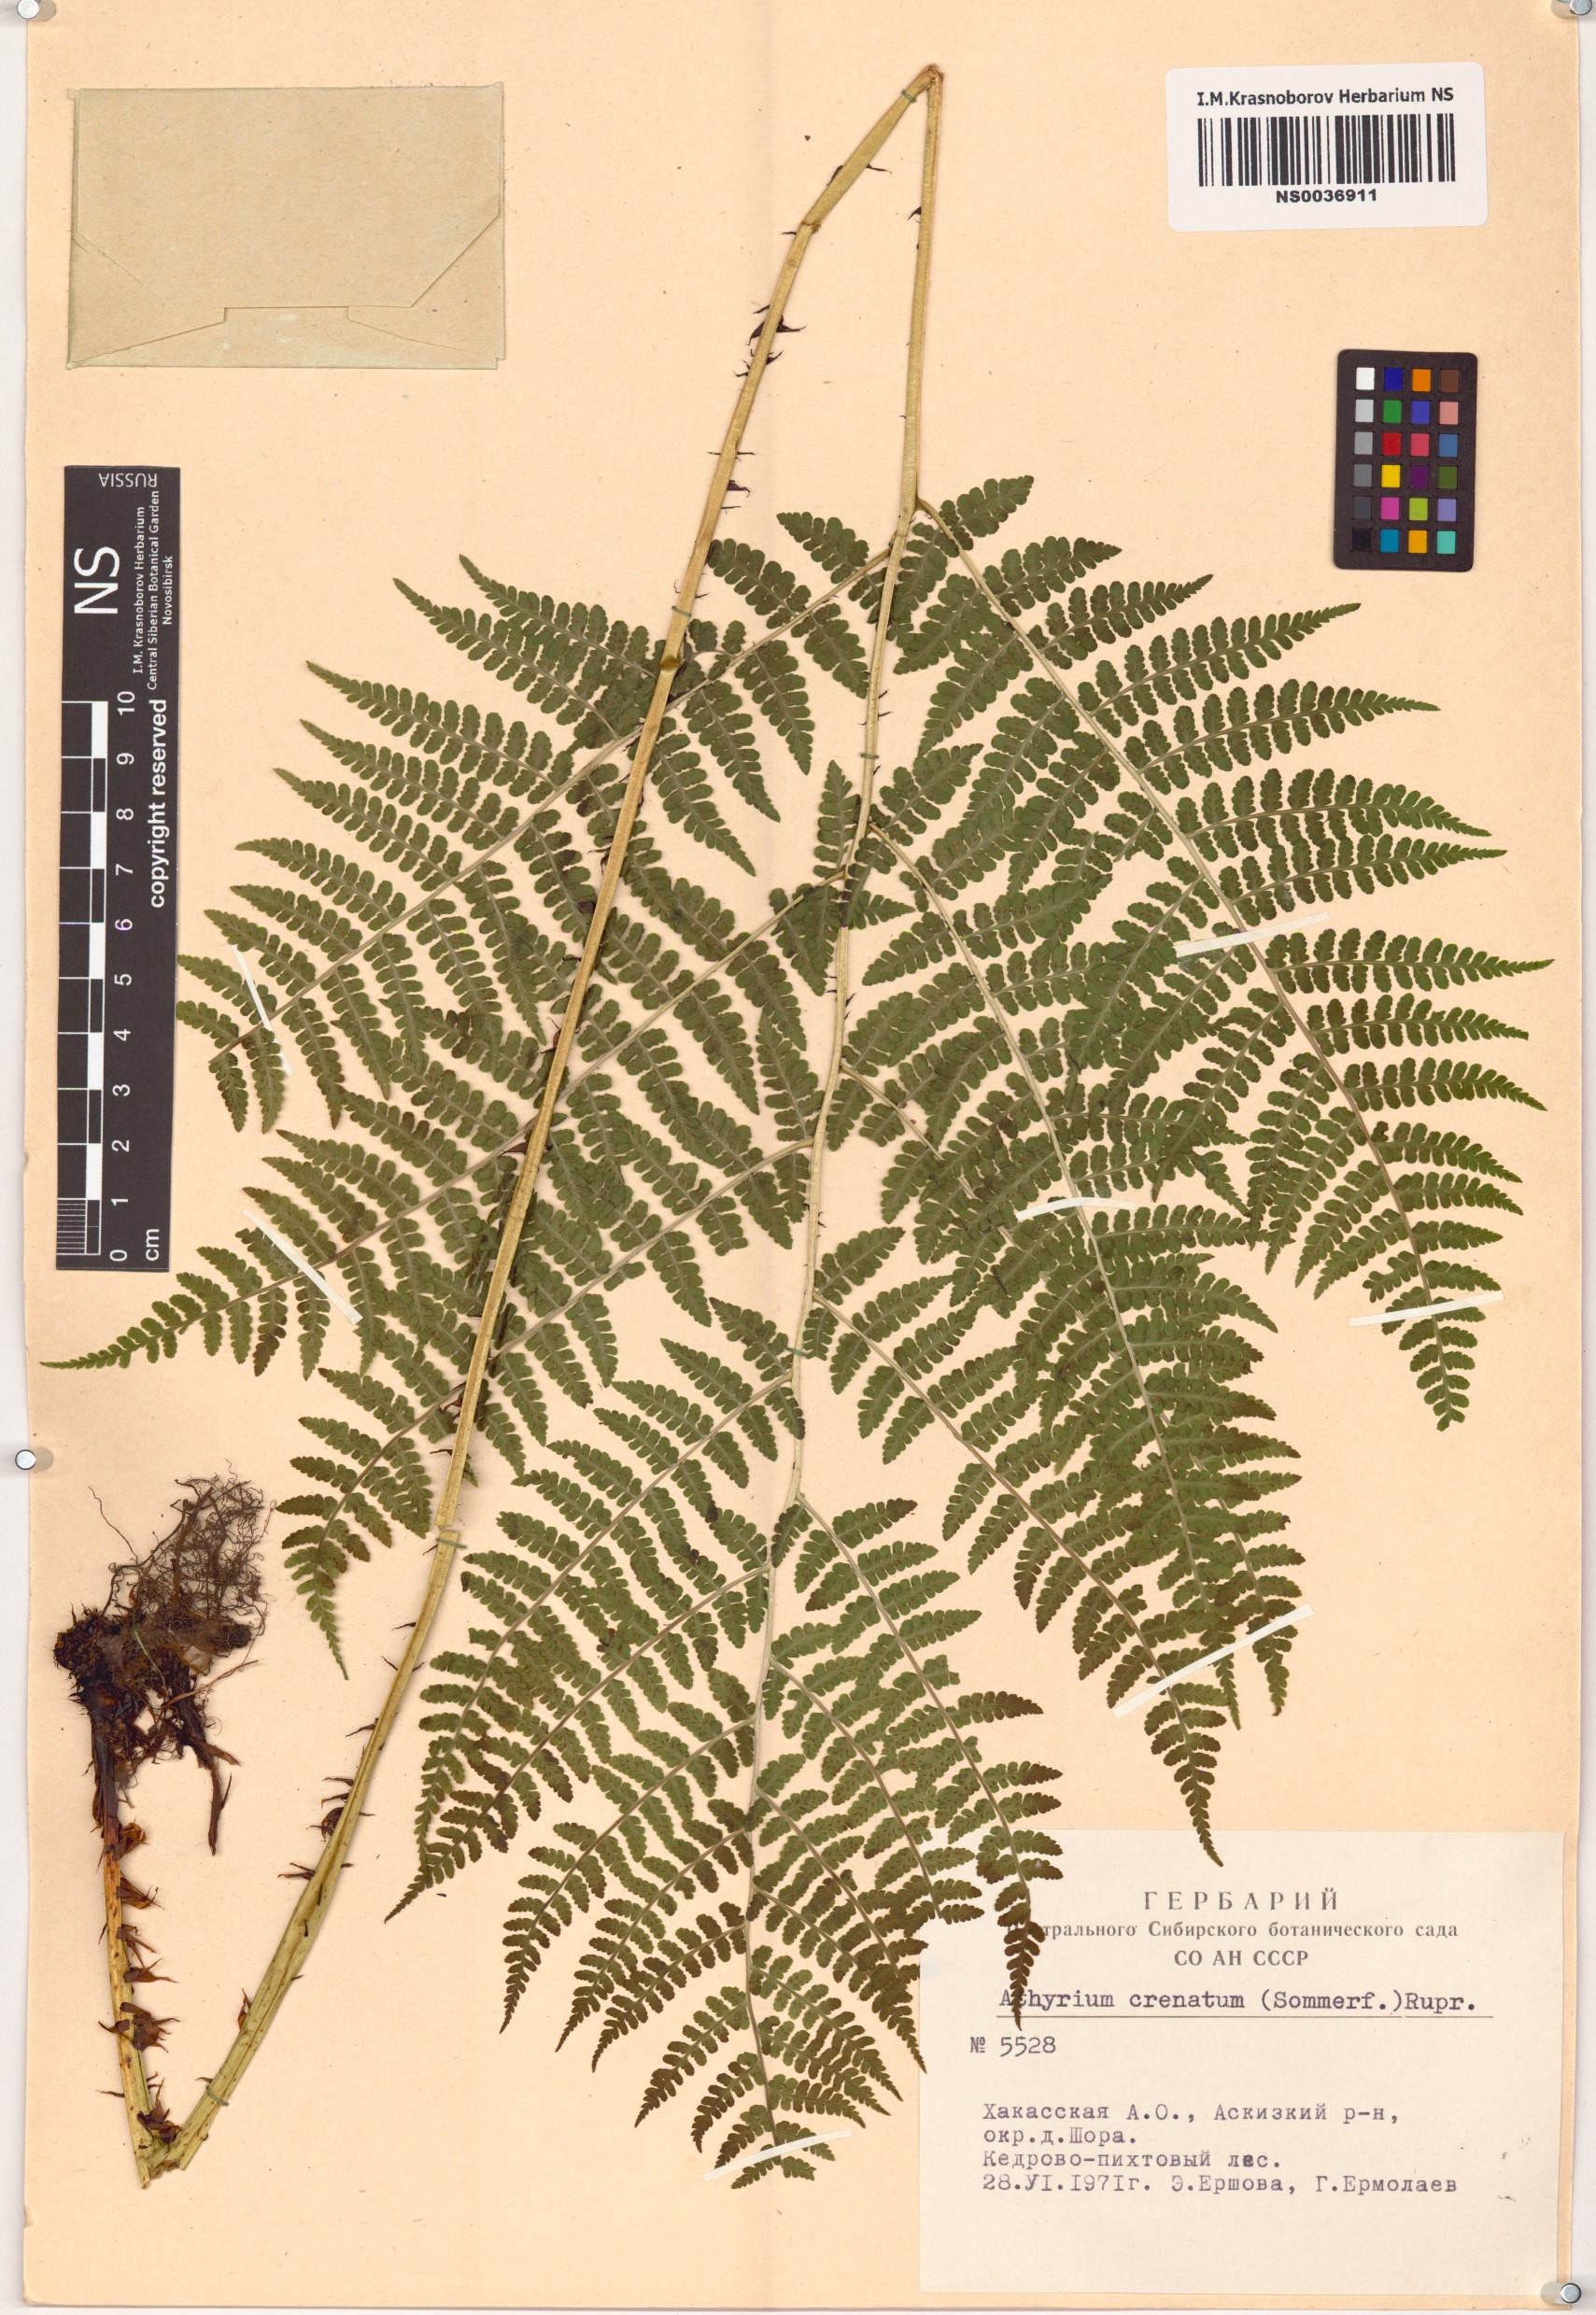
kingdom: Plantae
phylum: Tracheophyta
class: Polypodiopsida
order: Polypodiales
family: Athyriaceae
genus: Diplazium
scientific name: Diplazium sibiricum
